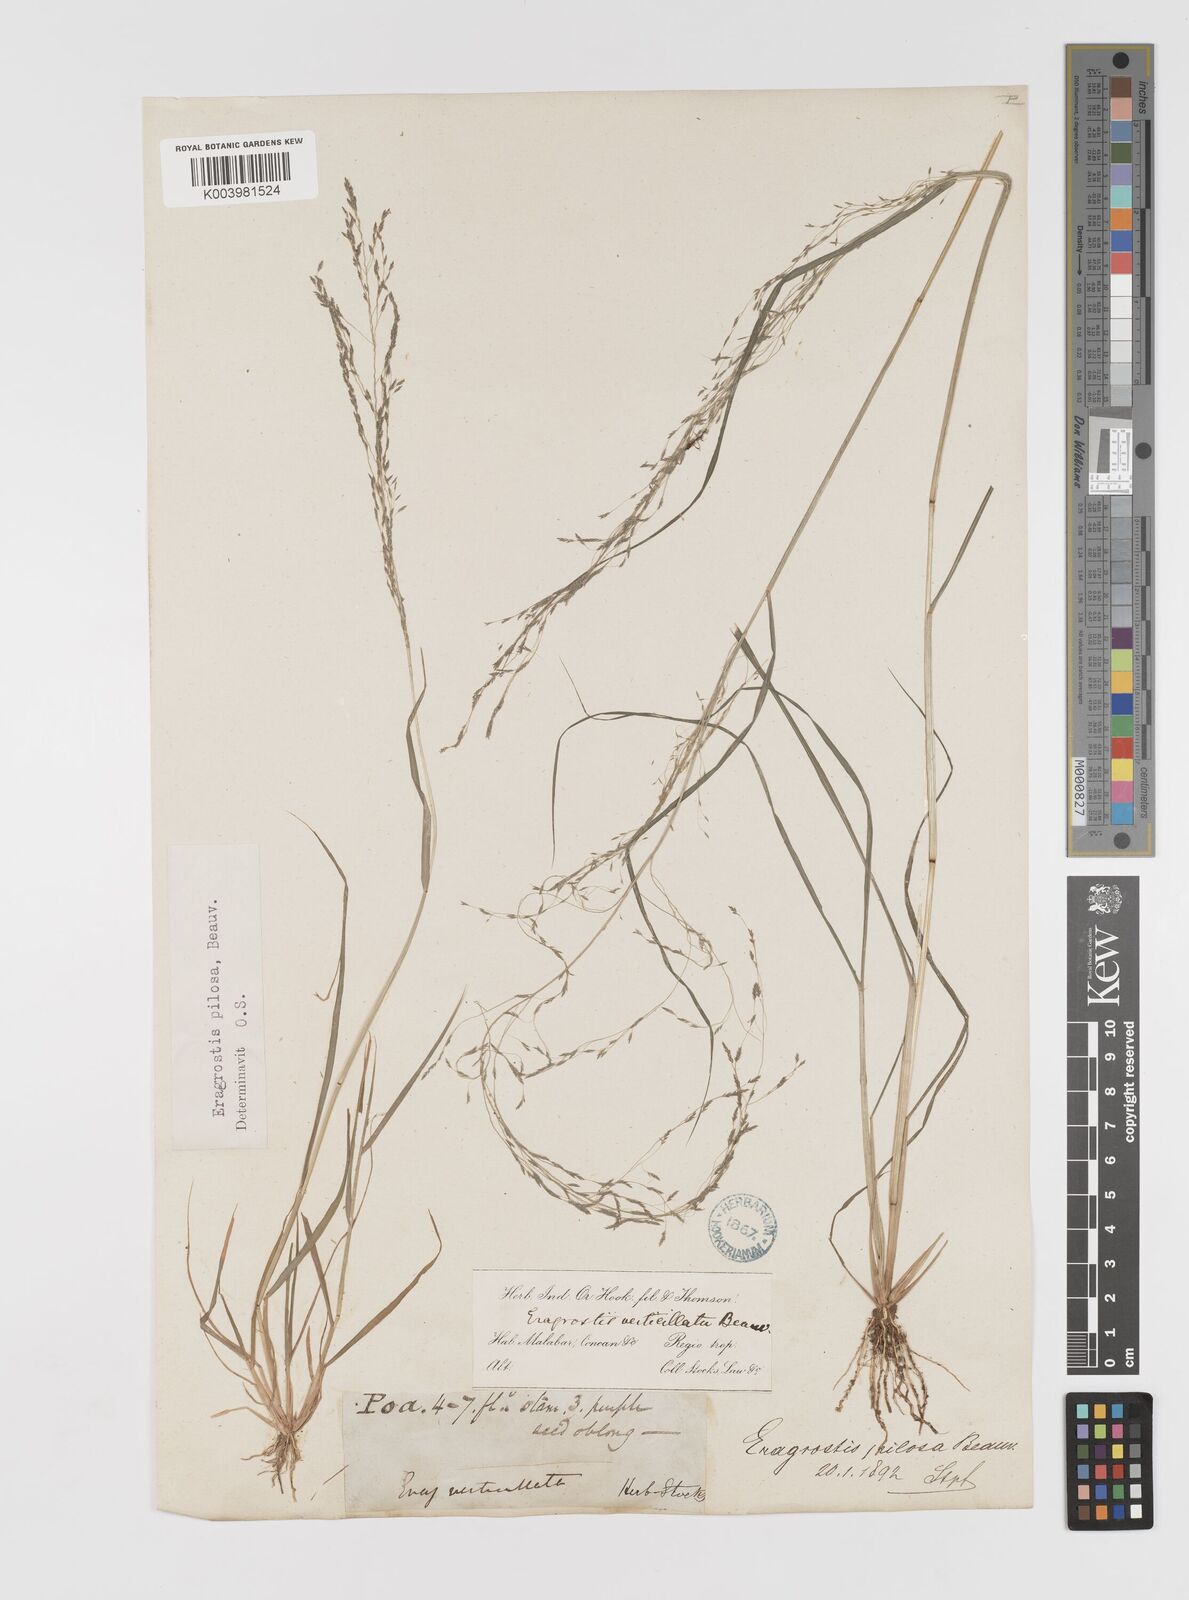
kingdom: Plantae
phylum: Tracheophyta
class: Liliopsida
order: Poales
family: Poaceae
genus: Eragrostis
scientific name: Eragrostis pilosa
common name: Indian lovegrass
